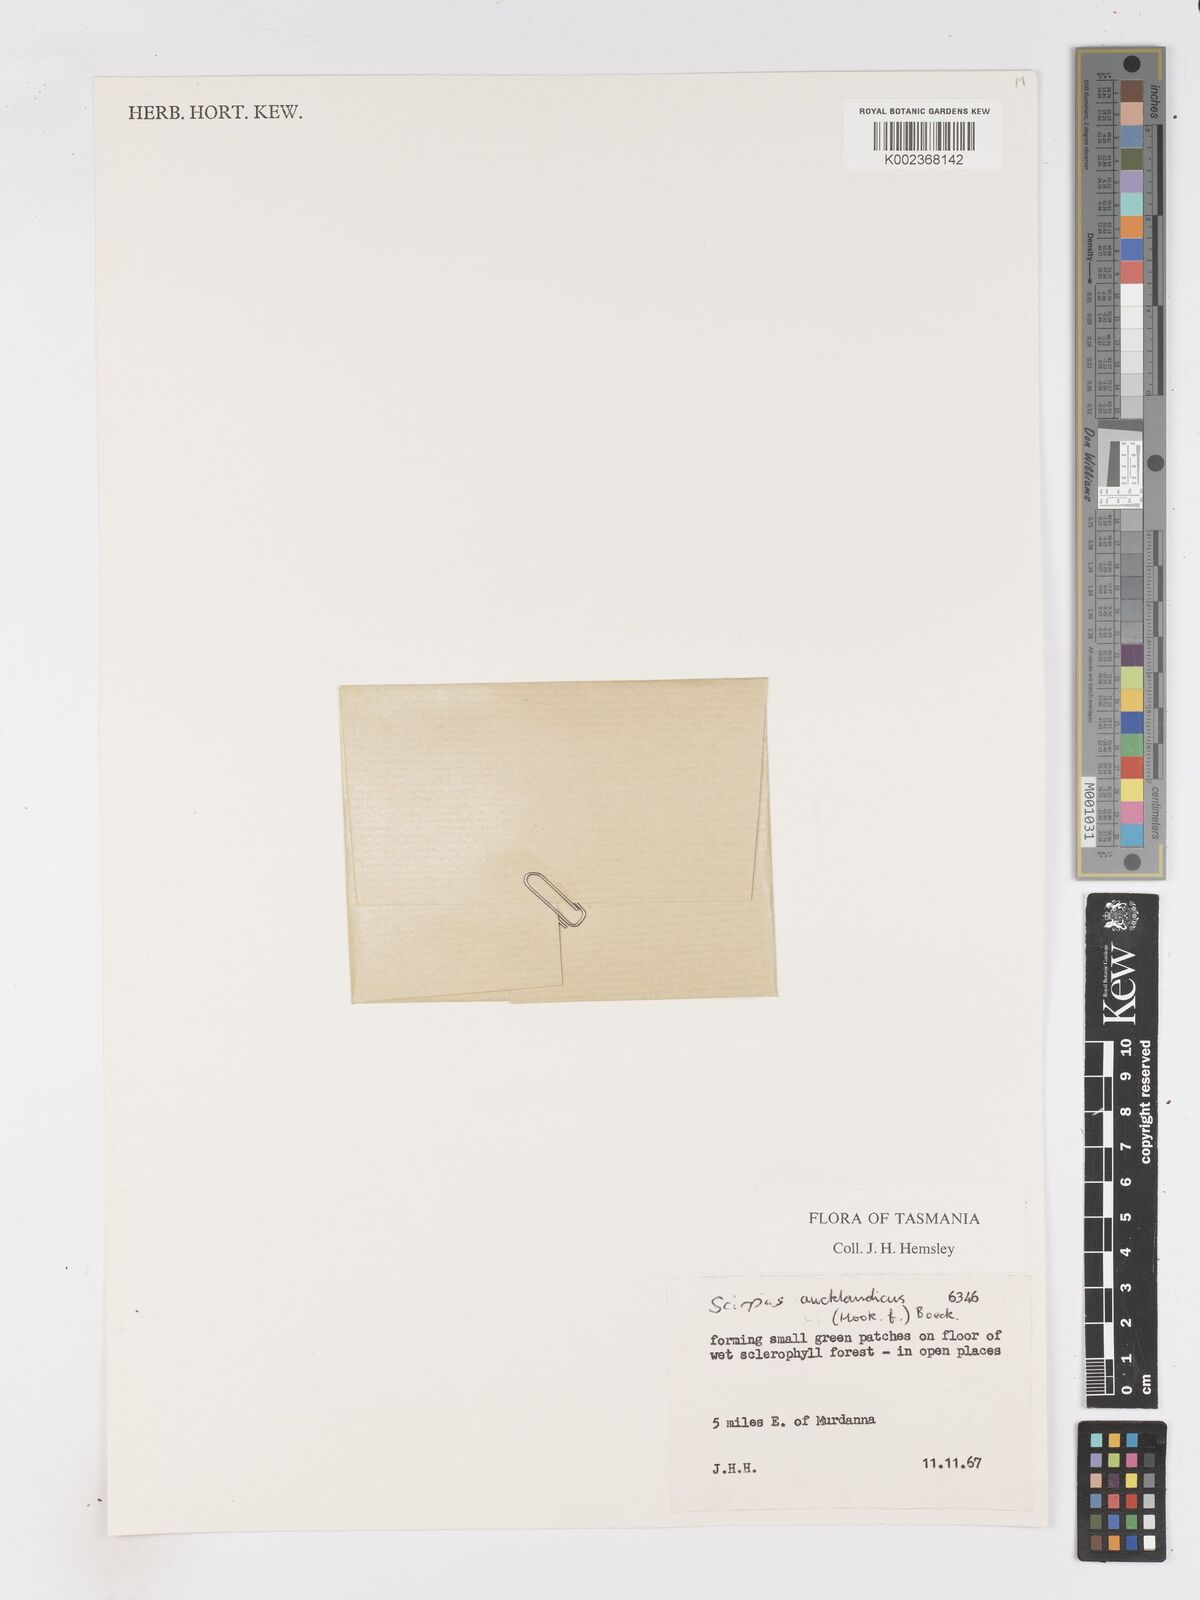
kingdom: Plantae
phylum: Tracheophyta
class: Liliopsida
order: Poales
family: Cyperaceae
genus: Isolepis
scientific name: Isolepis aucklandica
